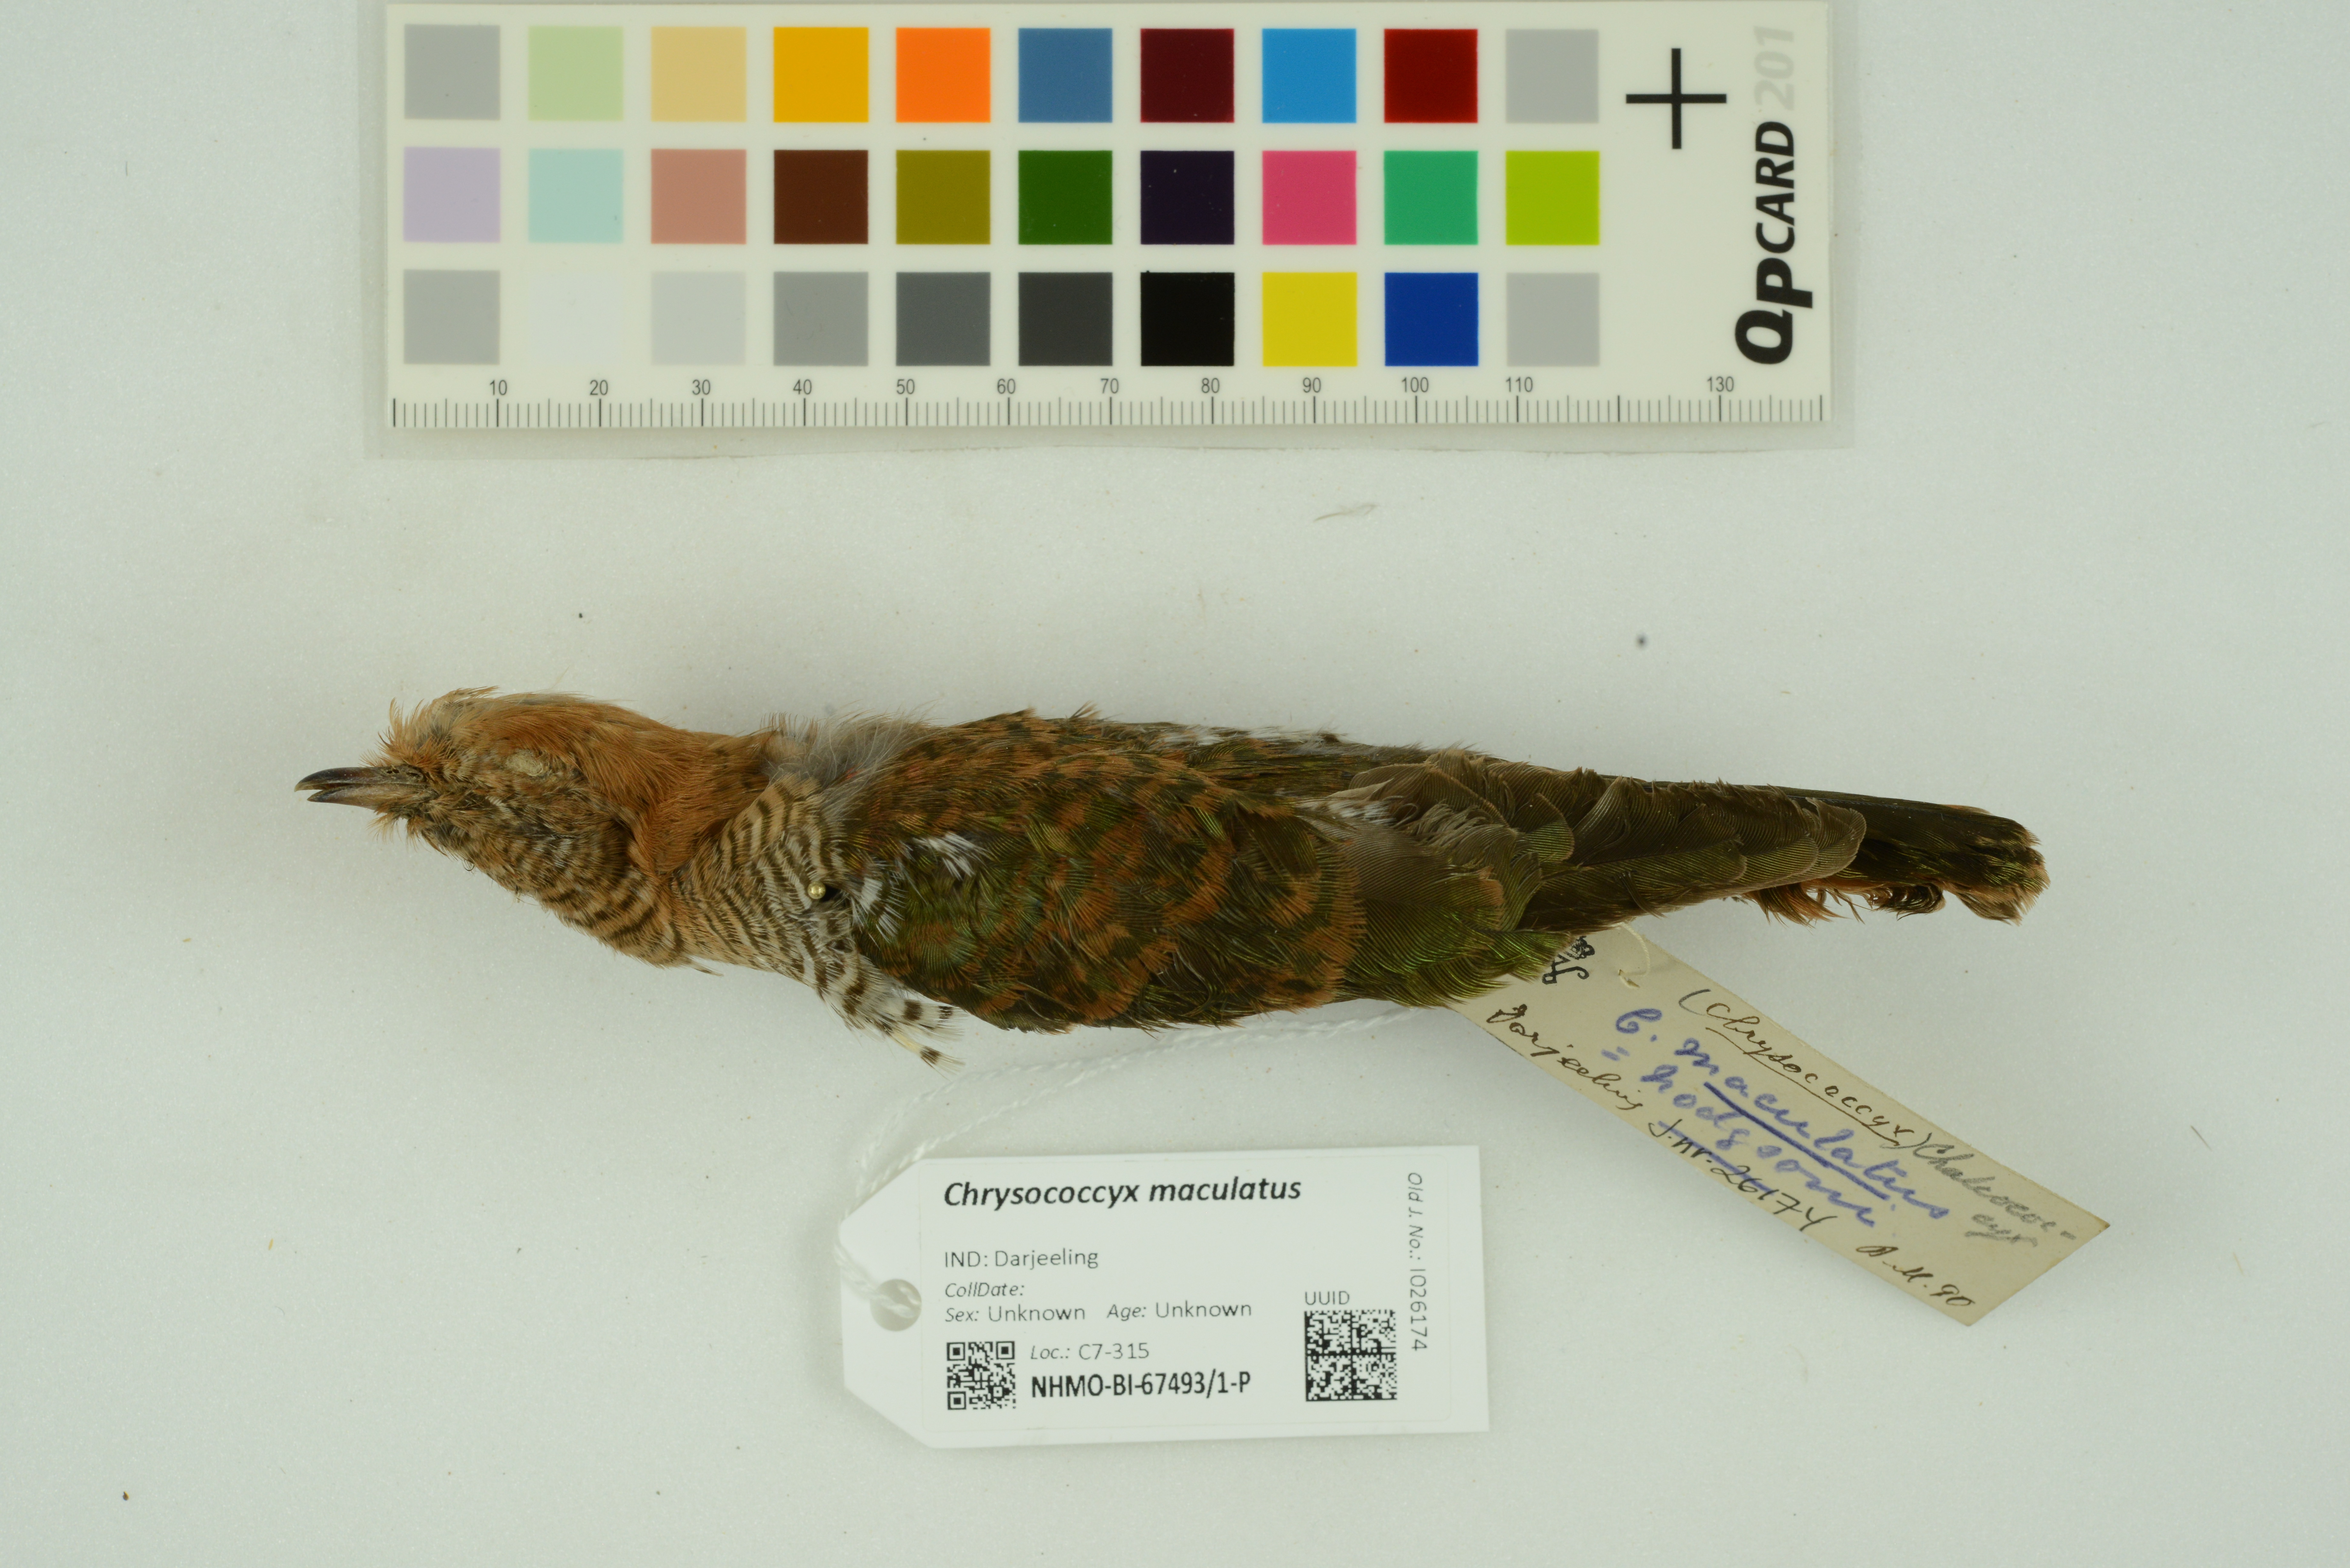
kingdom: Animalia
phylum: Chordata
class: Aves
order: Cuculiformes
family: Cuculidae
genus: Chrysococcyx
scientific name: Chrysococcyx maculatus
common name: Asian emerald cuckoo
